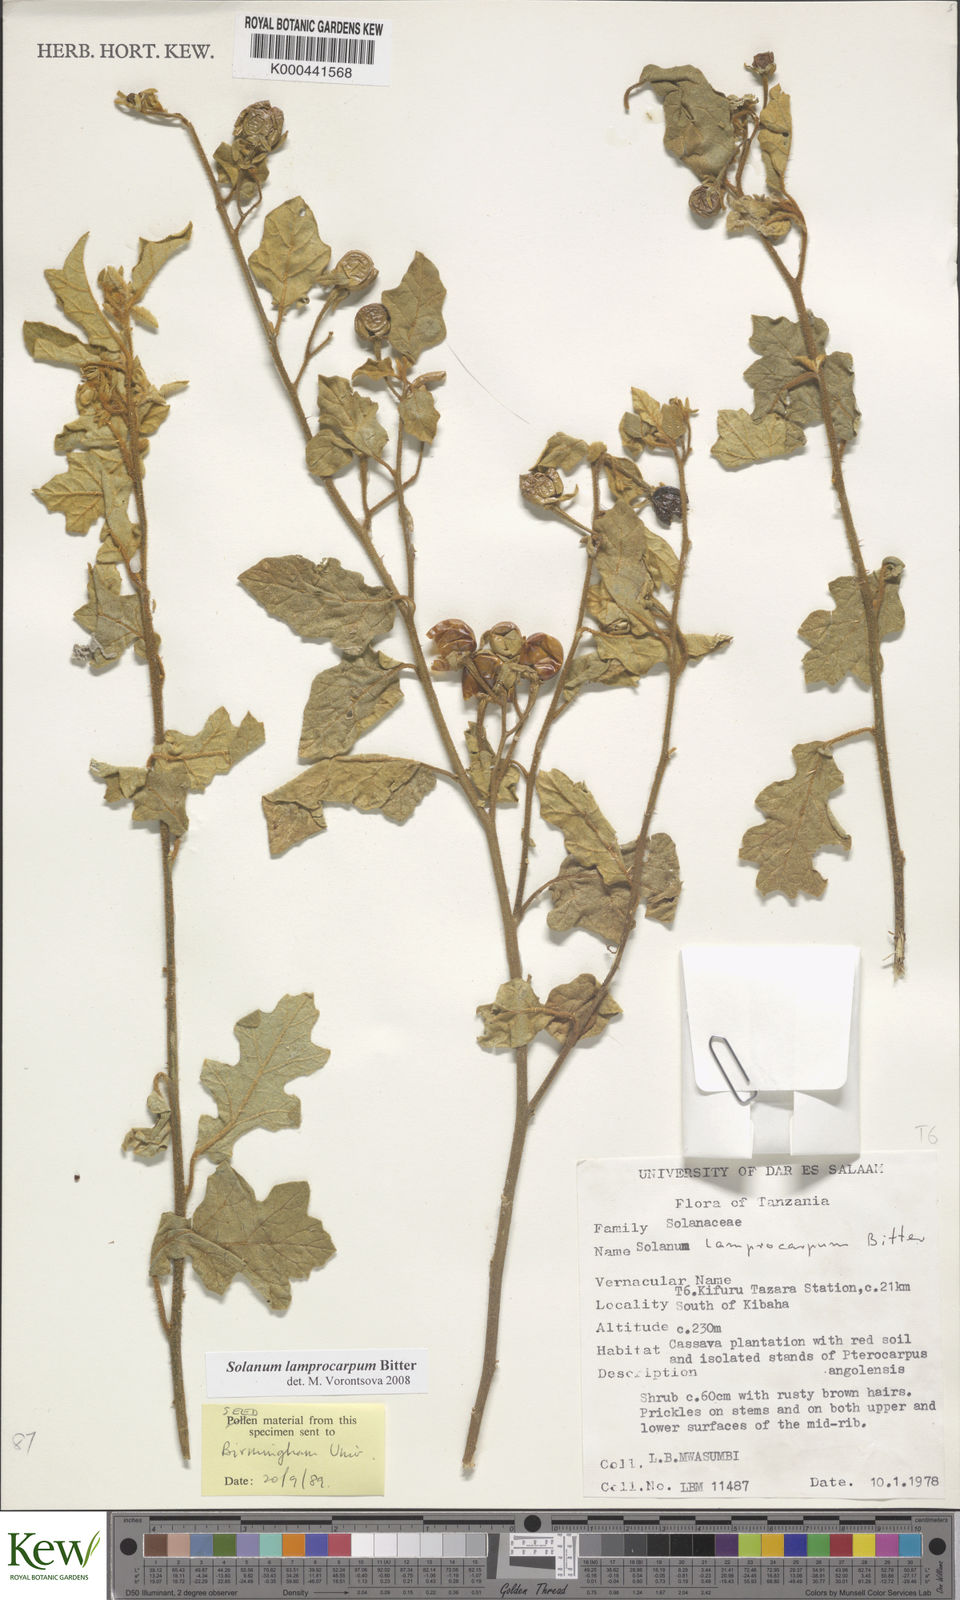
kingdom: Plantae
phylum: Tracheophyta
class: Magnoliopsida
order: Solanales
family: Solanaceae
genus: Solanum
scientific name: Solanum lamprocarpum
